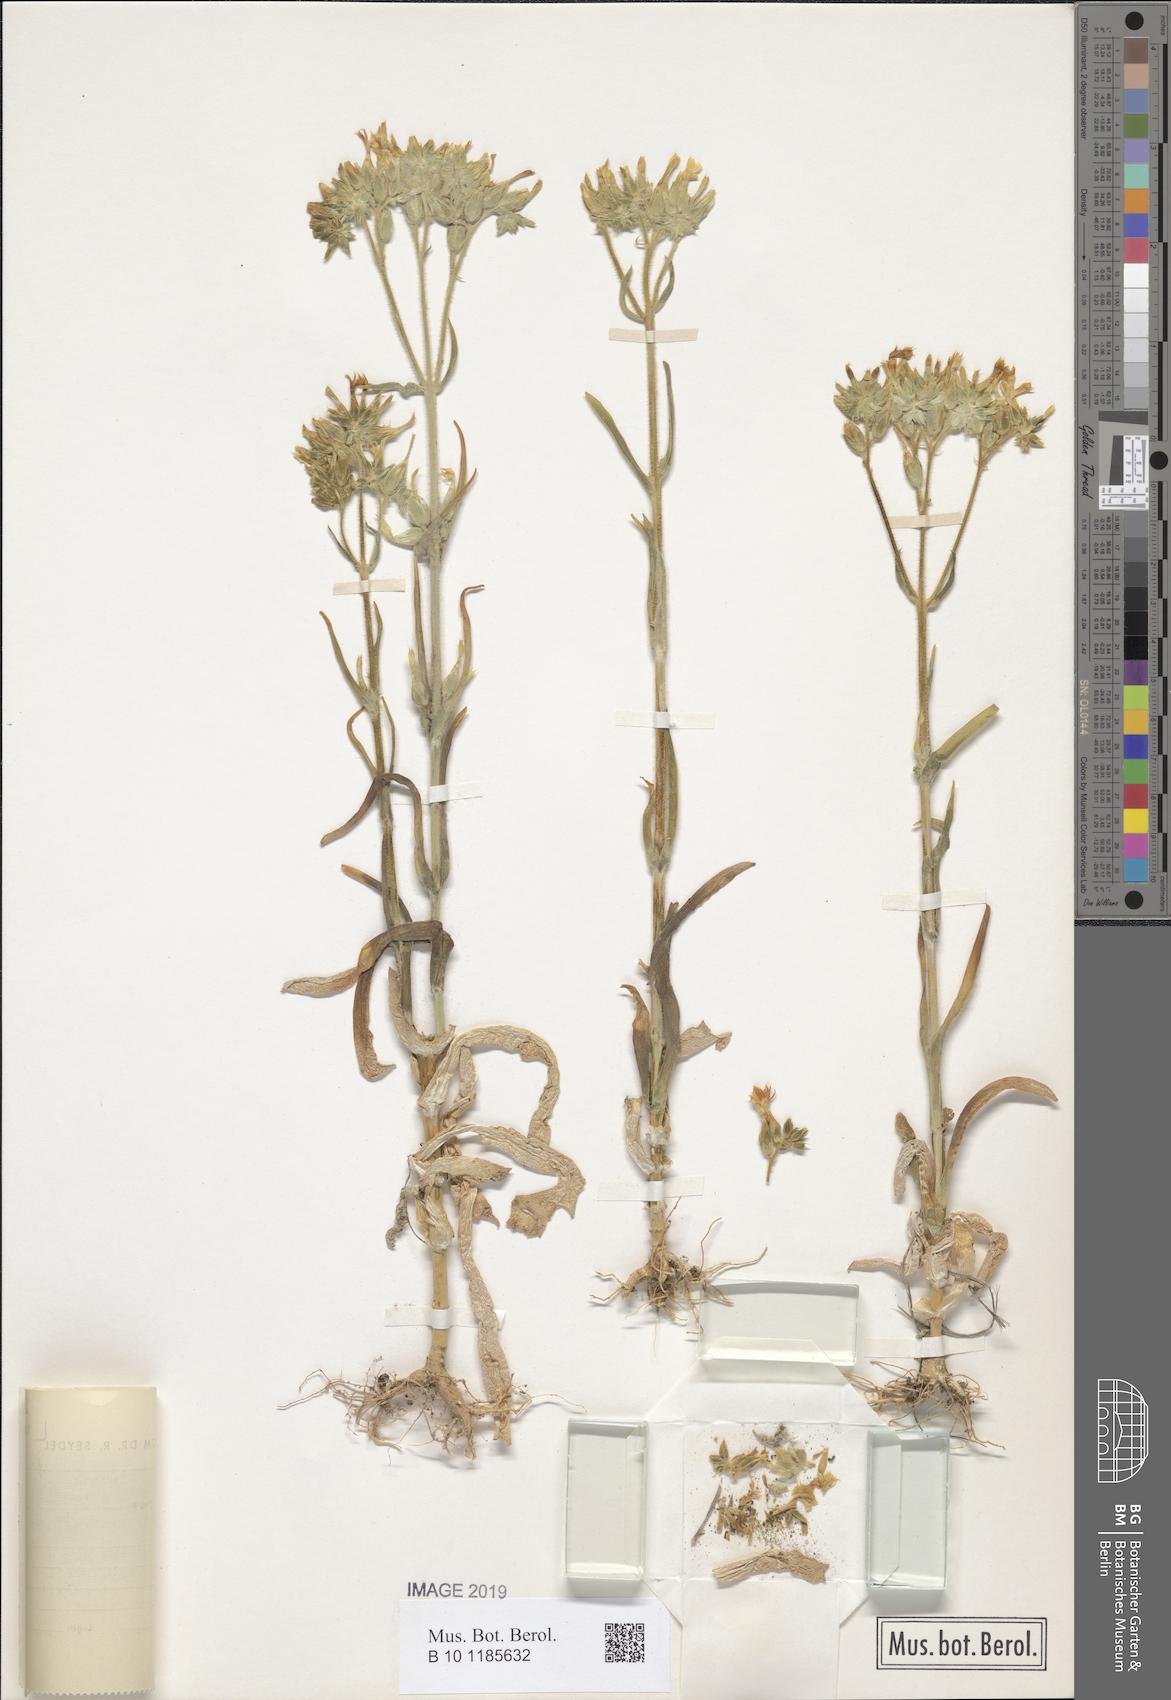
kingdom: Plantae
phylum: Tracheophyta
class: Magnoliopsida
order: Saxifragales
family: Crassulaceae
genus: Kalanchoe
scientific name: Kalanchoe lanceolata
